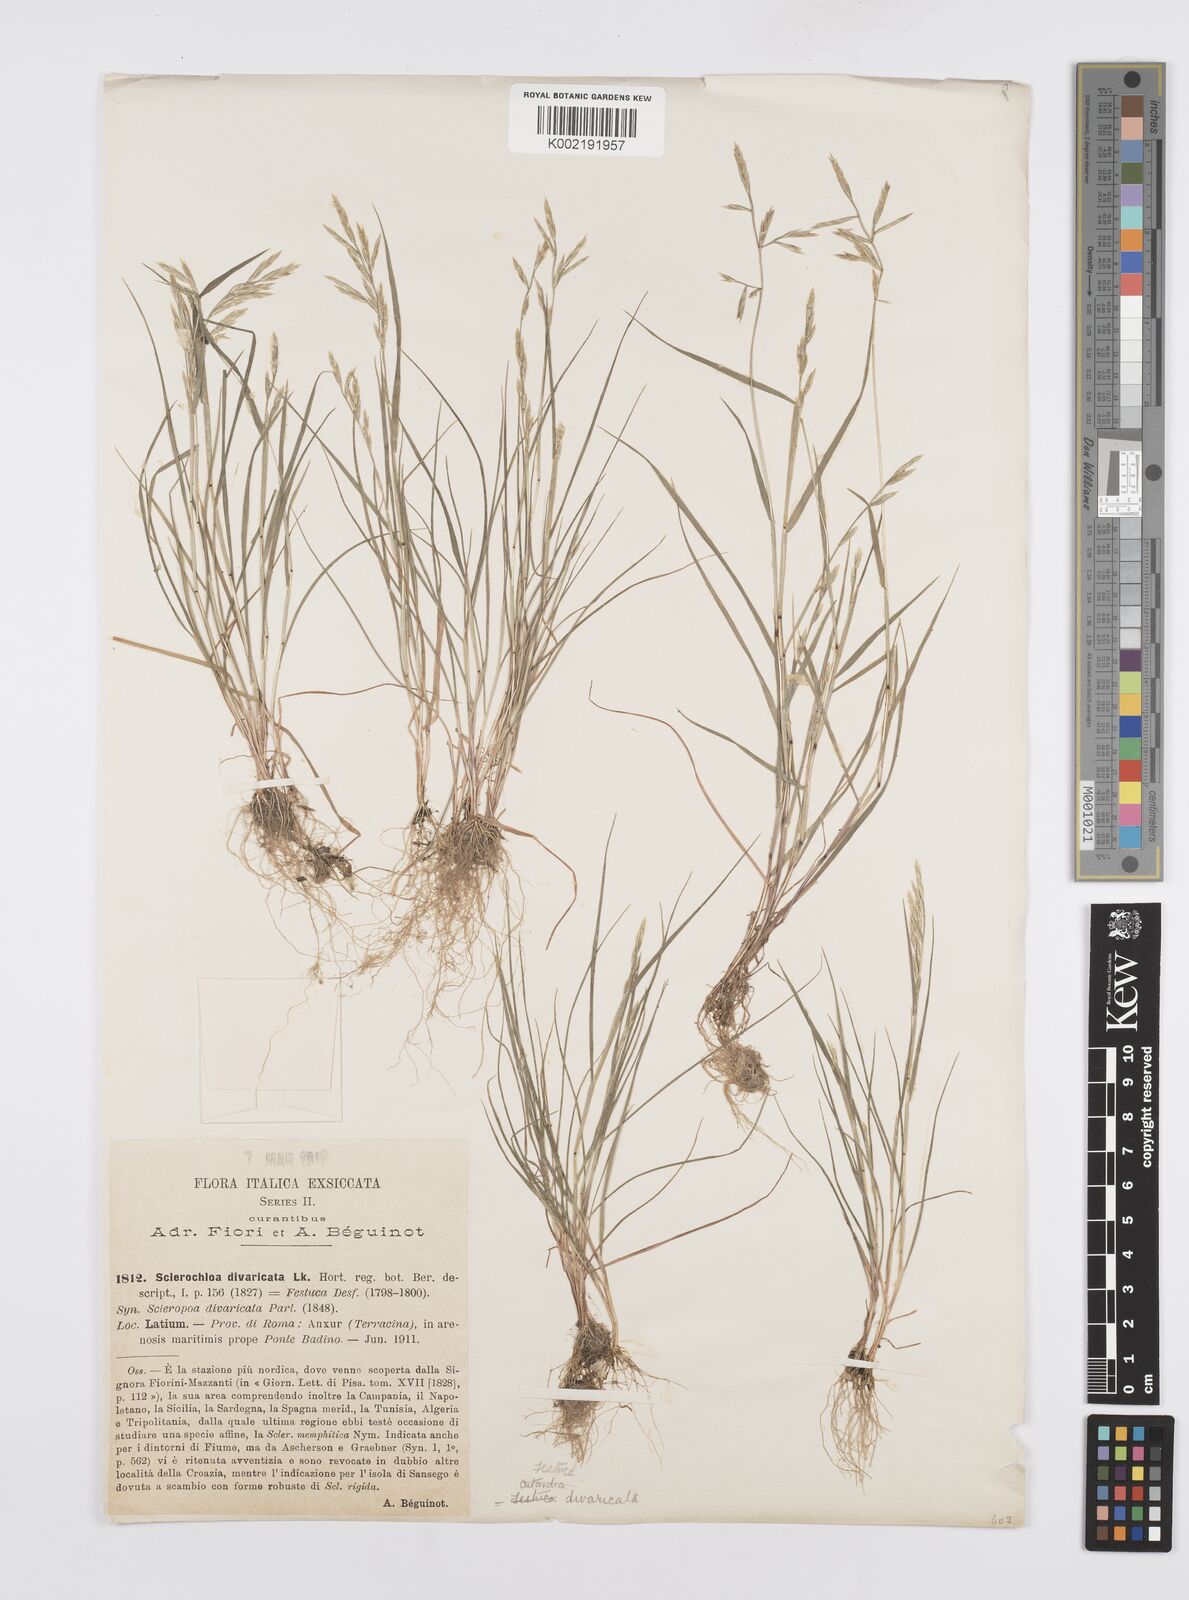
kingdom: Plantae
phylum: Tracheophyta
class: Liliopsida
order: Poales
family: Poaceae
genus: Cutandia
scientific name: Cutandia divaricata
